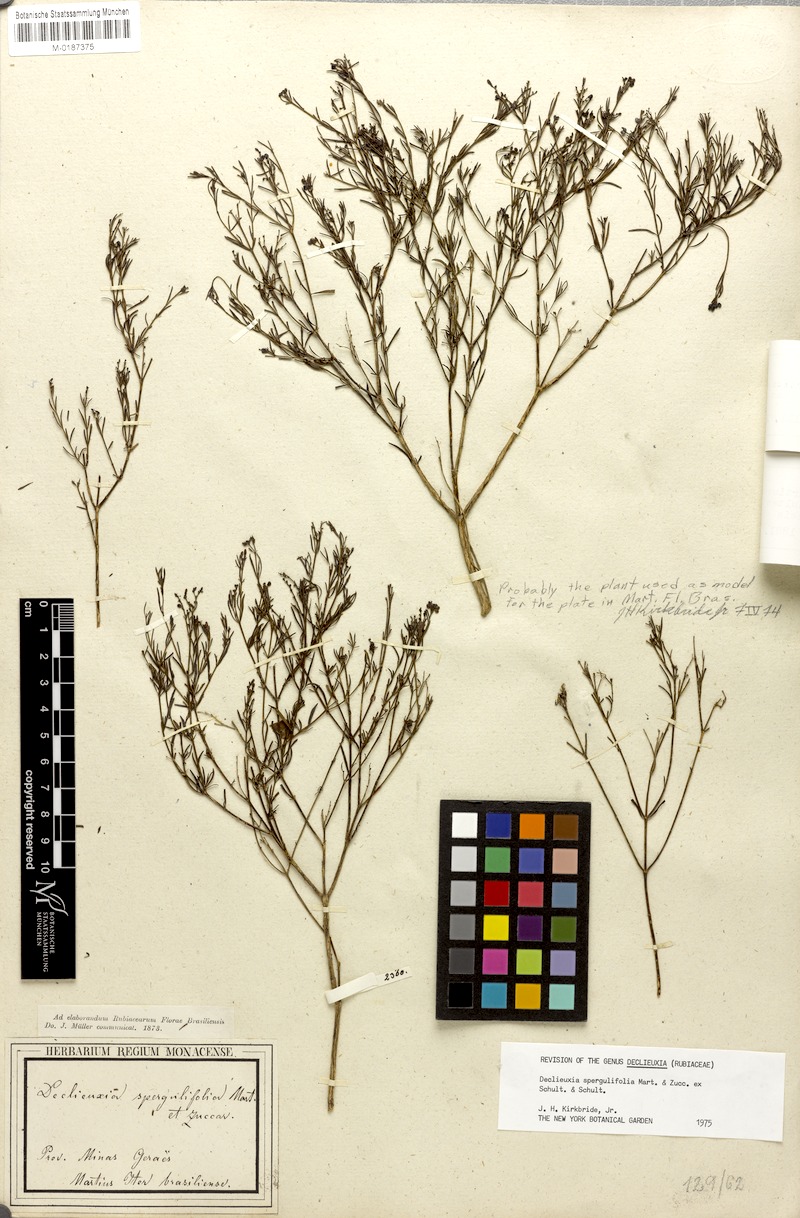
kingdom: Plantae
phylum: Tracheophyta
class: Magnoliopsida
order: Gentianales
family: Rubiaceae
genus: Declieuxia
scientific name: Declieuxia spergulifolia
